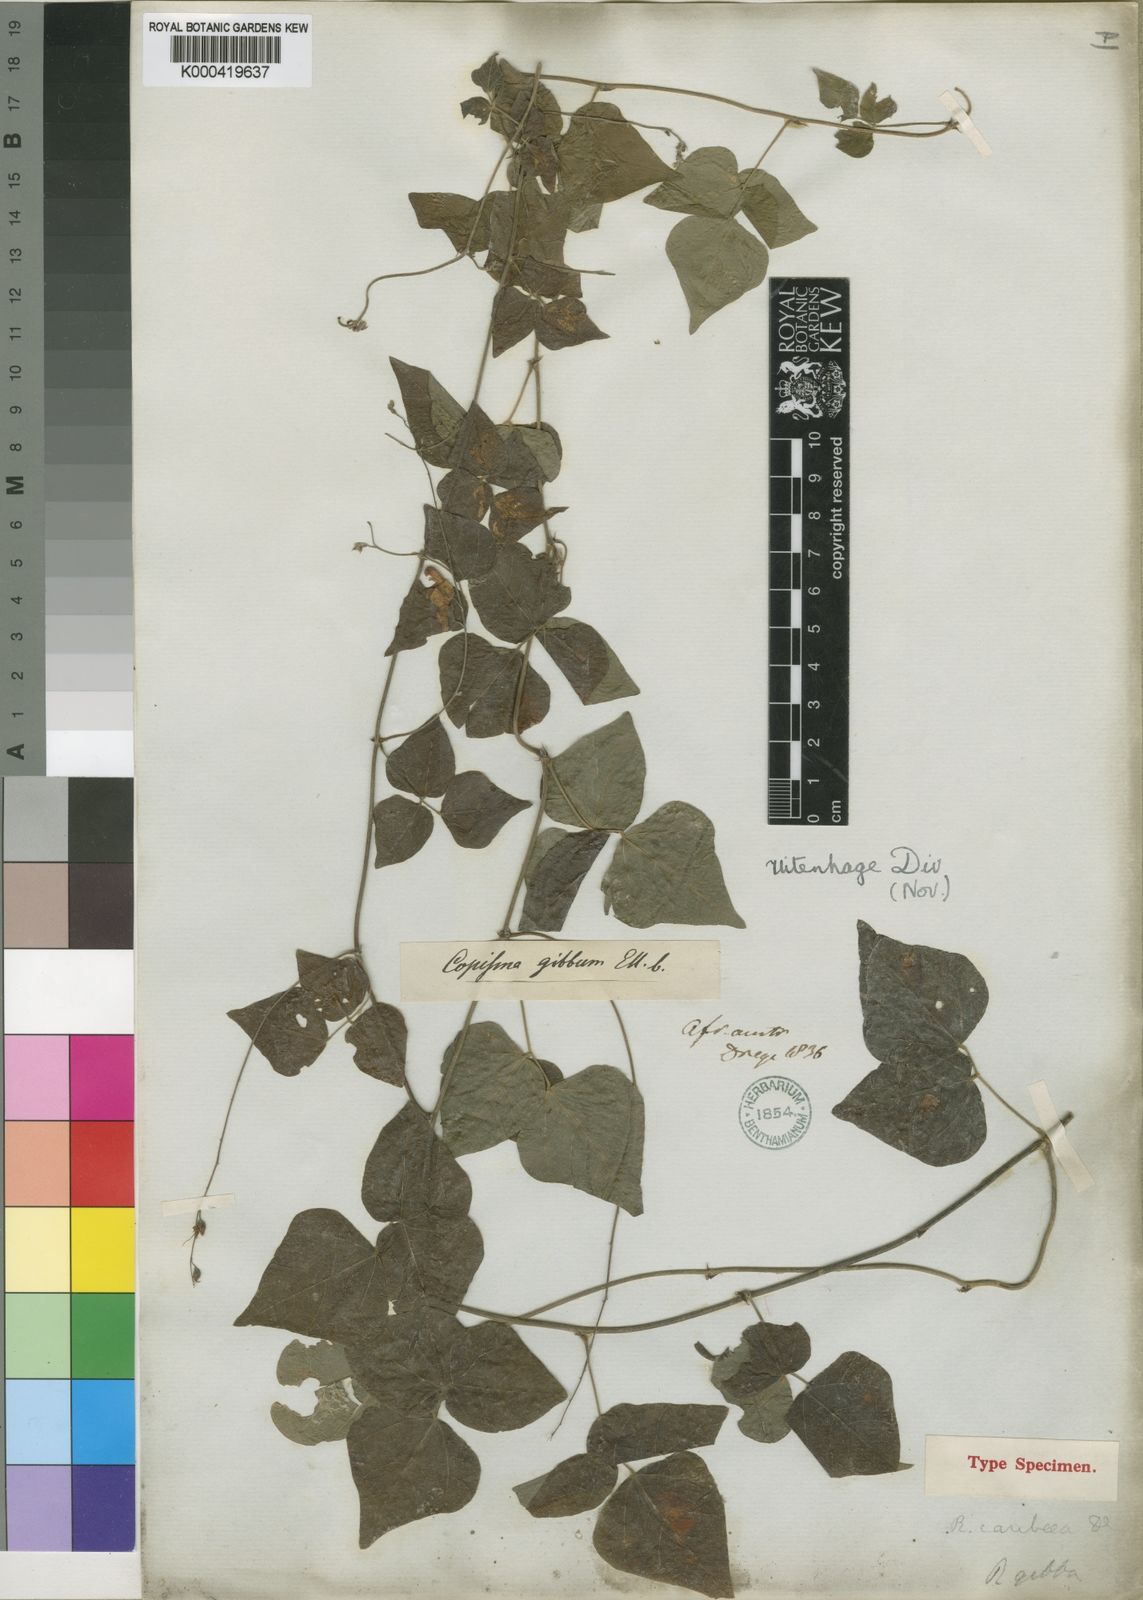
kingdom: Plantae
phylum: Tracheophyta
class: Magnoliopsida
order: Fabales
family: Fabaceae
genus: Rhynchosia
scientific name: Rhynchosia caribaea
